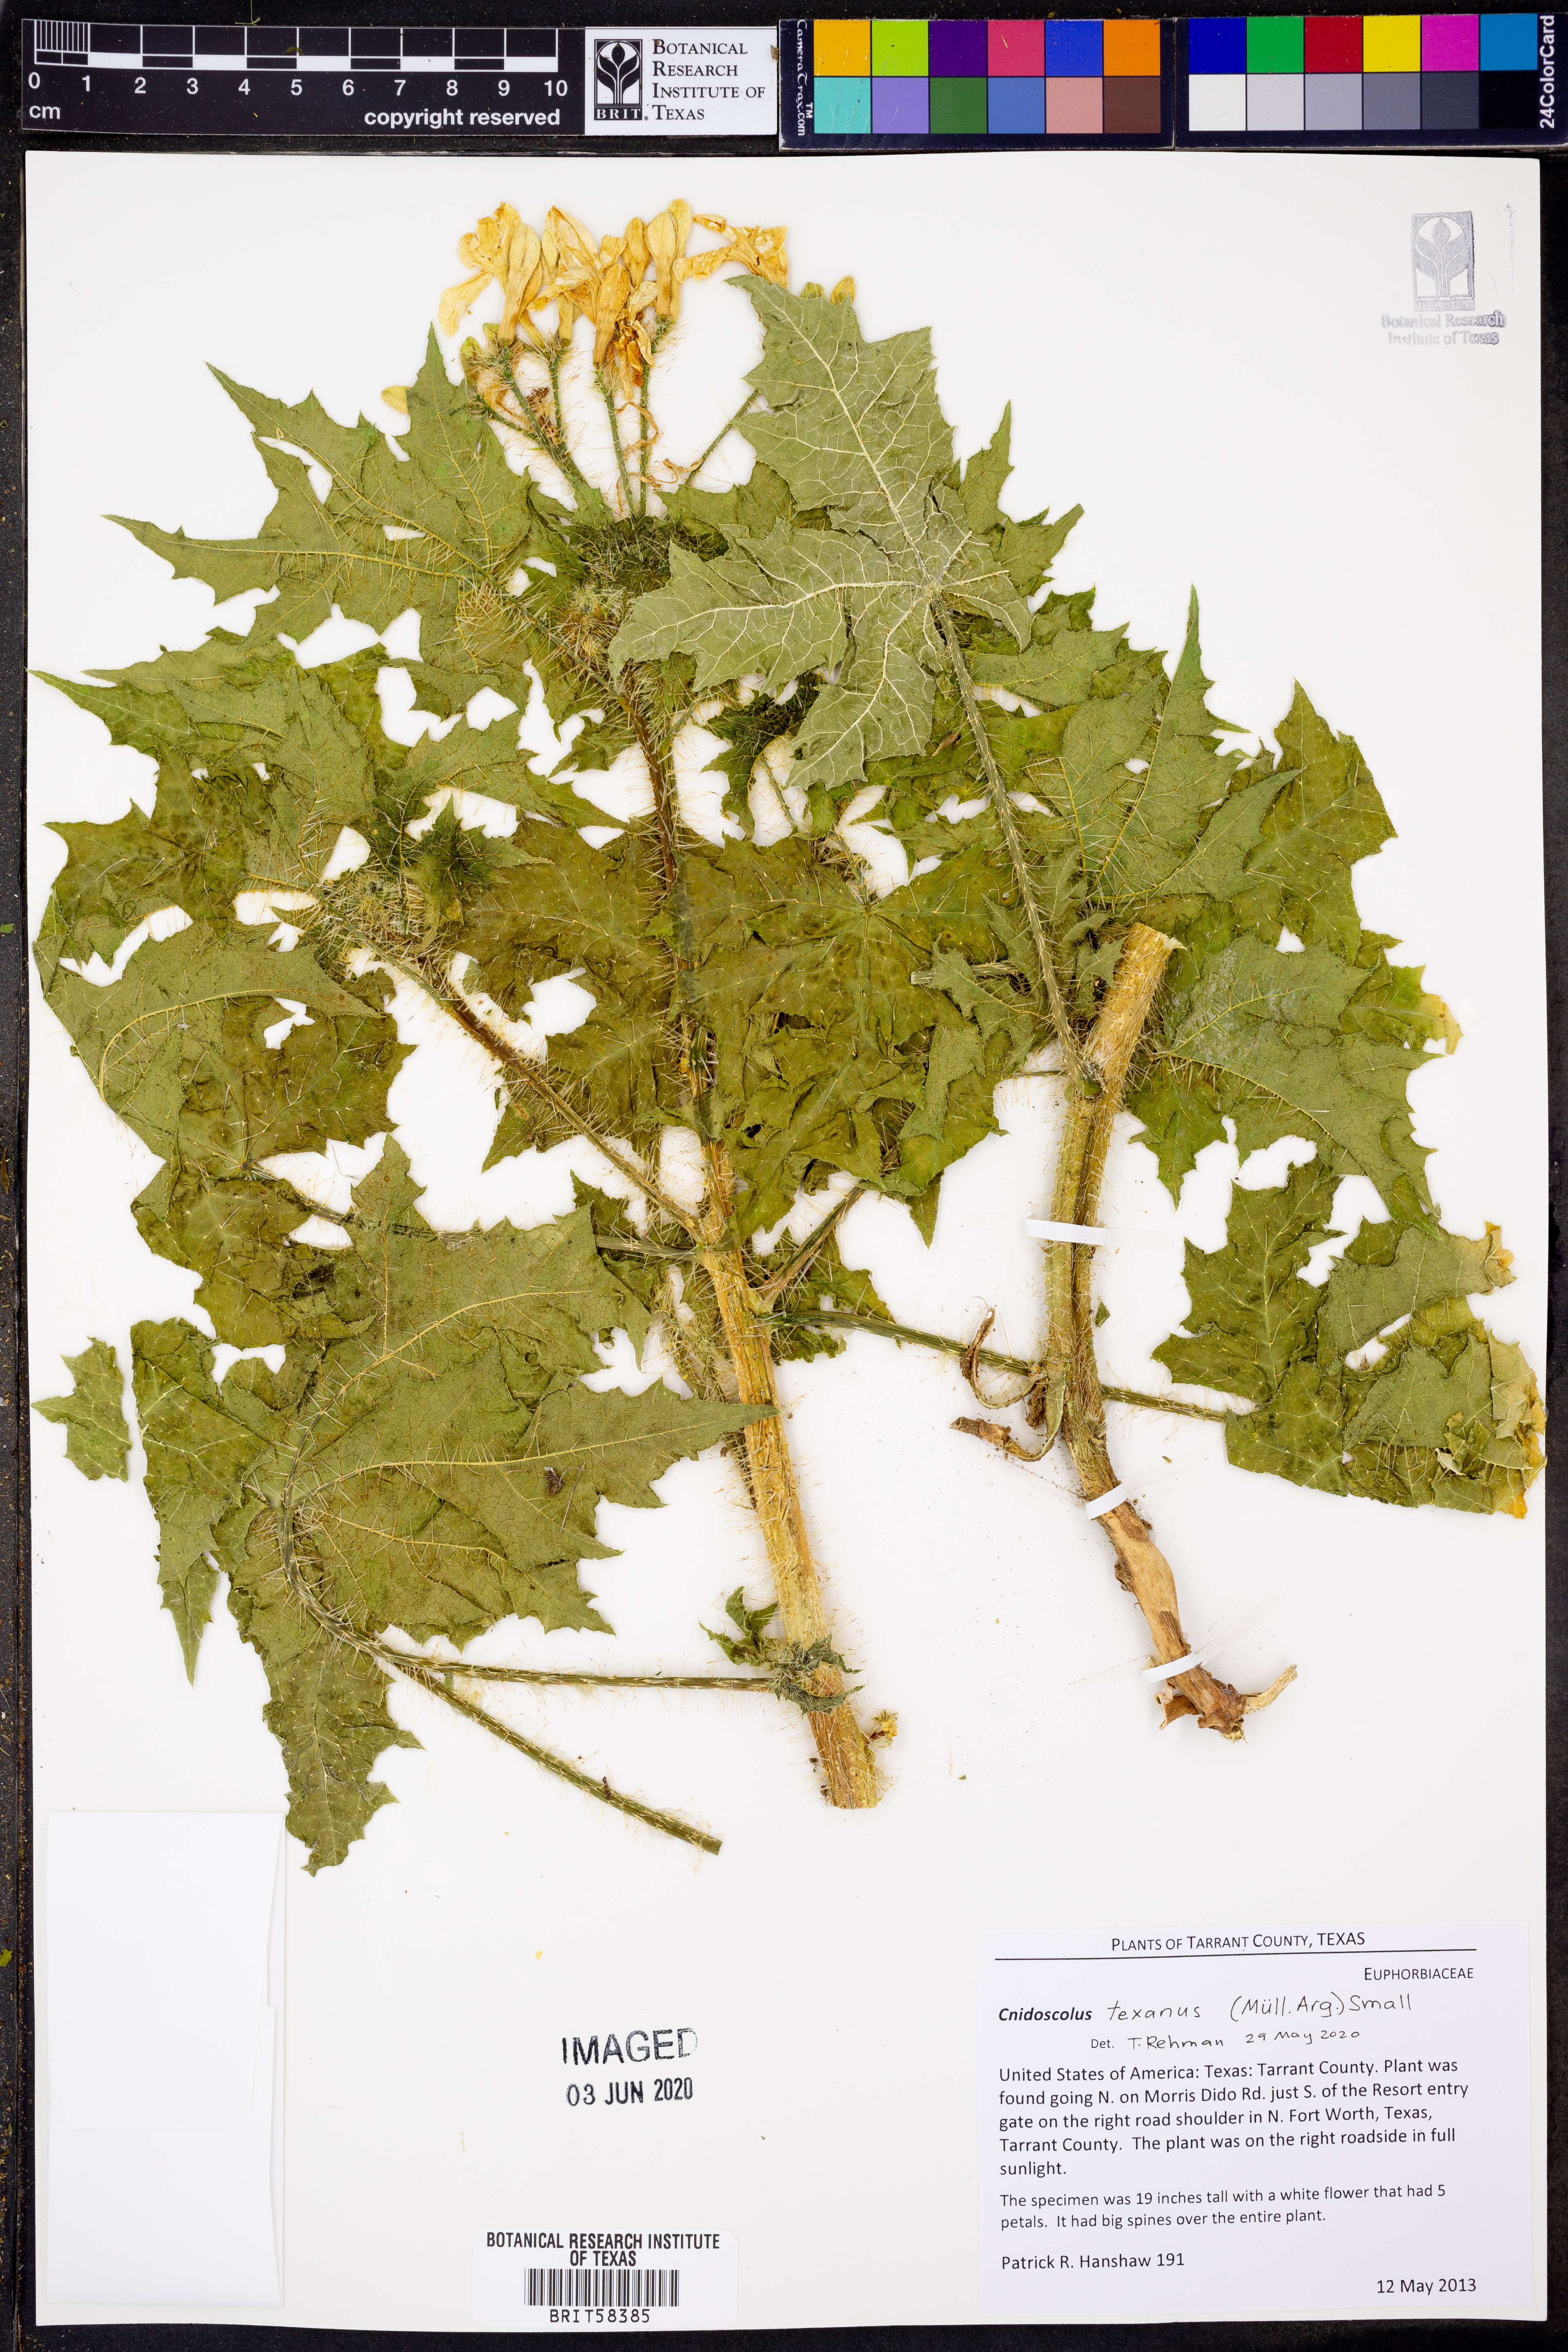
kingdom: Plantae
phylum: Tracheophyta
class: Magnoliopsida
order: Malpighiales
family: Euphorbiaceae
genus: Cnidoscolus
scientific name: Cnidoscolus texanus
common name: Texas bull-nettle
